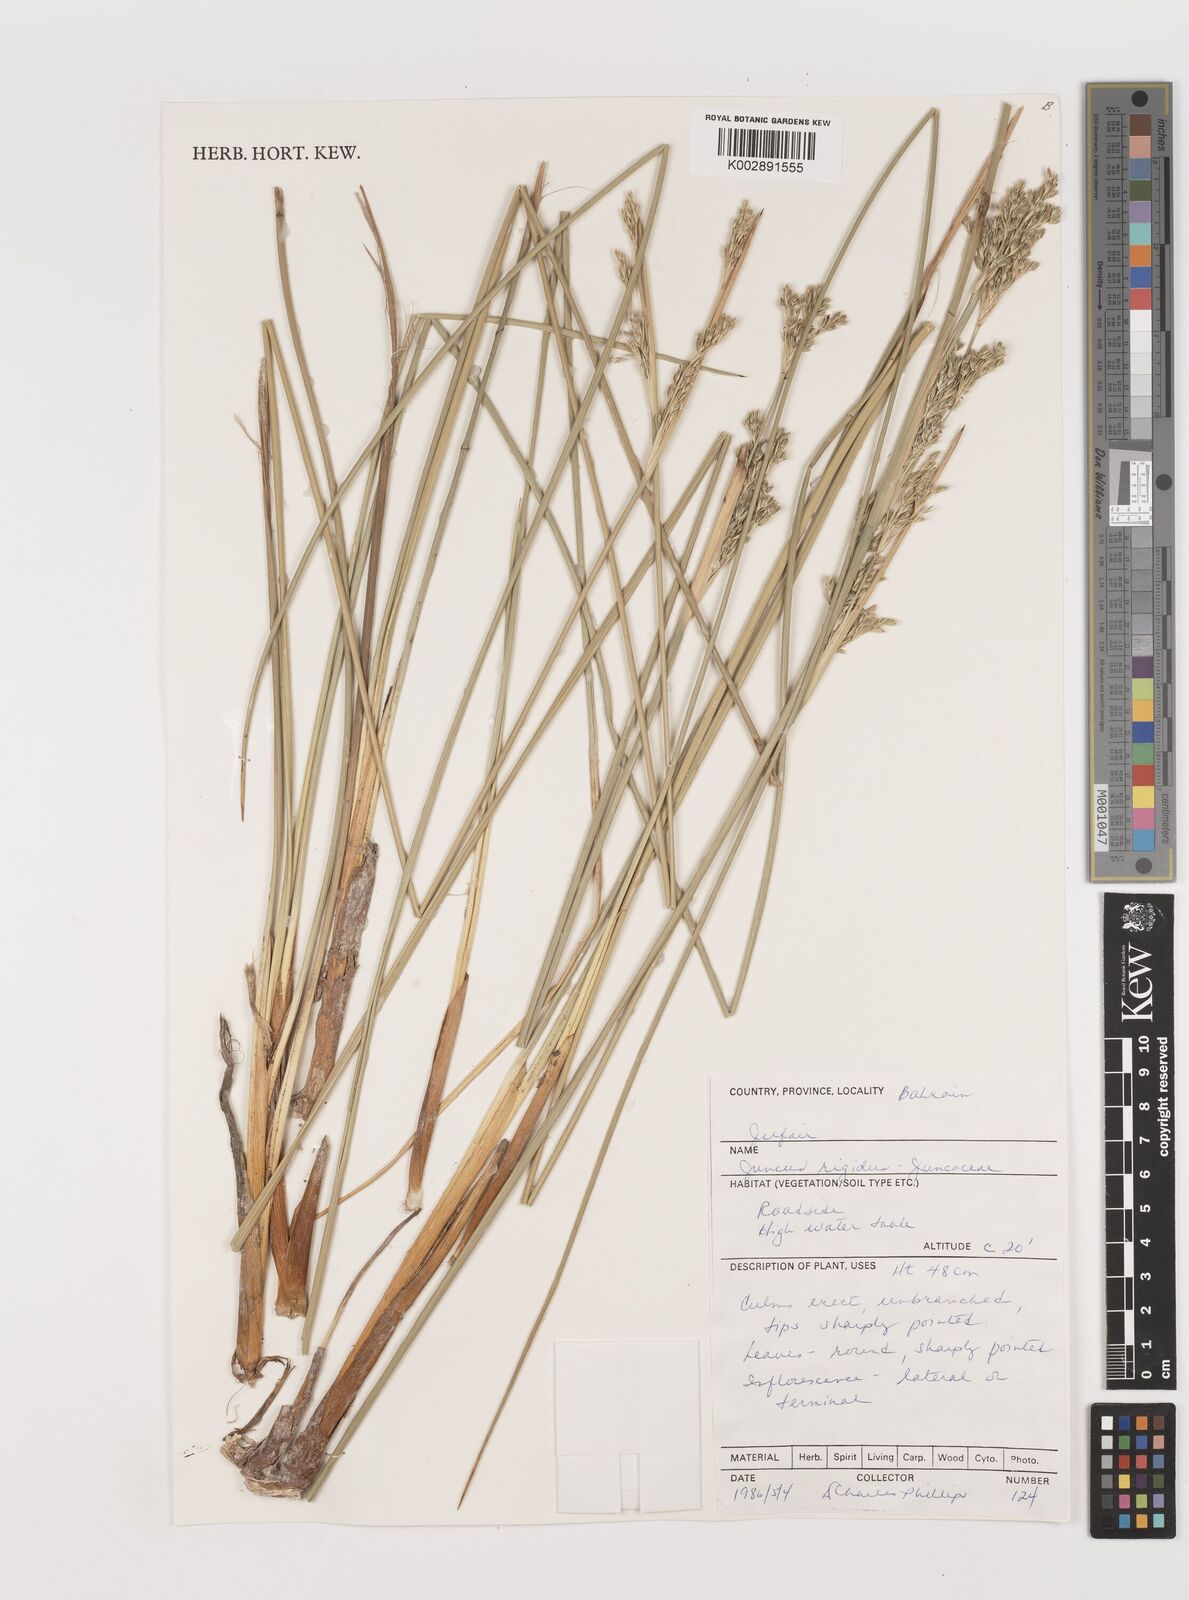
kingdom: Plantae
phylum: Tracheophyta
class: Liliopsida
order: Poales
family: Juncaceae
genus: Juncus
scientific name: Juncus rigidus
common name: Hard sea rush
